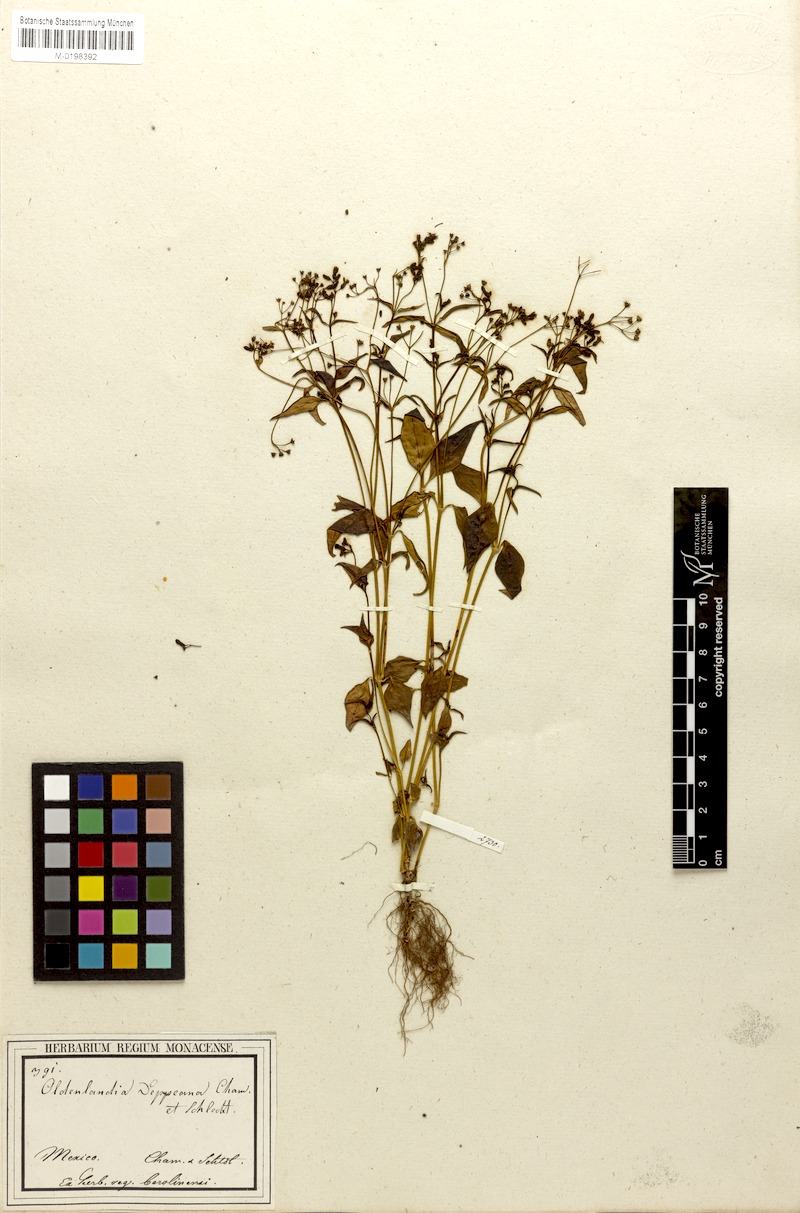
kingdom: Plantae
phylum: Tracheophyta
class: Magnoliopsida
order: Gentianales
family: Rubiaceae
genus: Oldenlandia
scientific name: Oldenlandia microtheca
